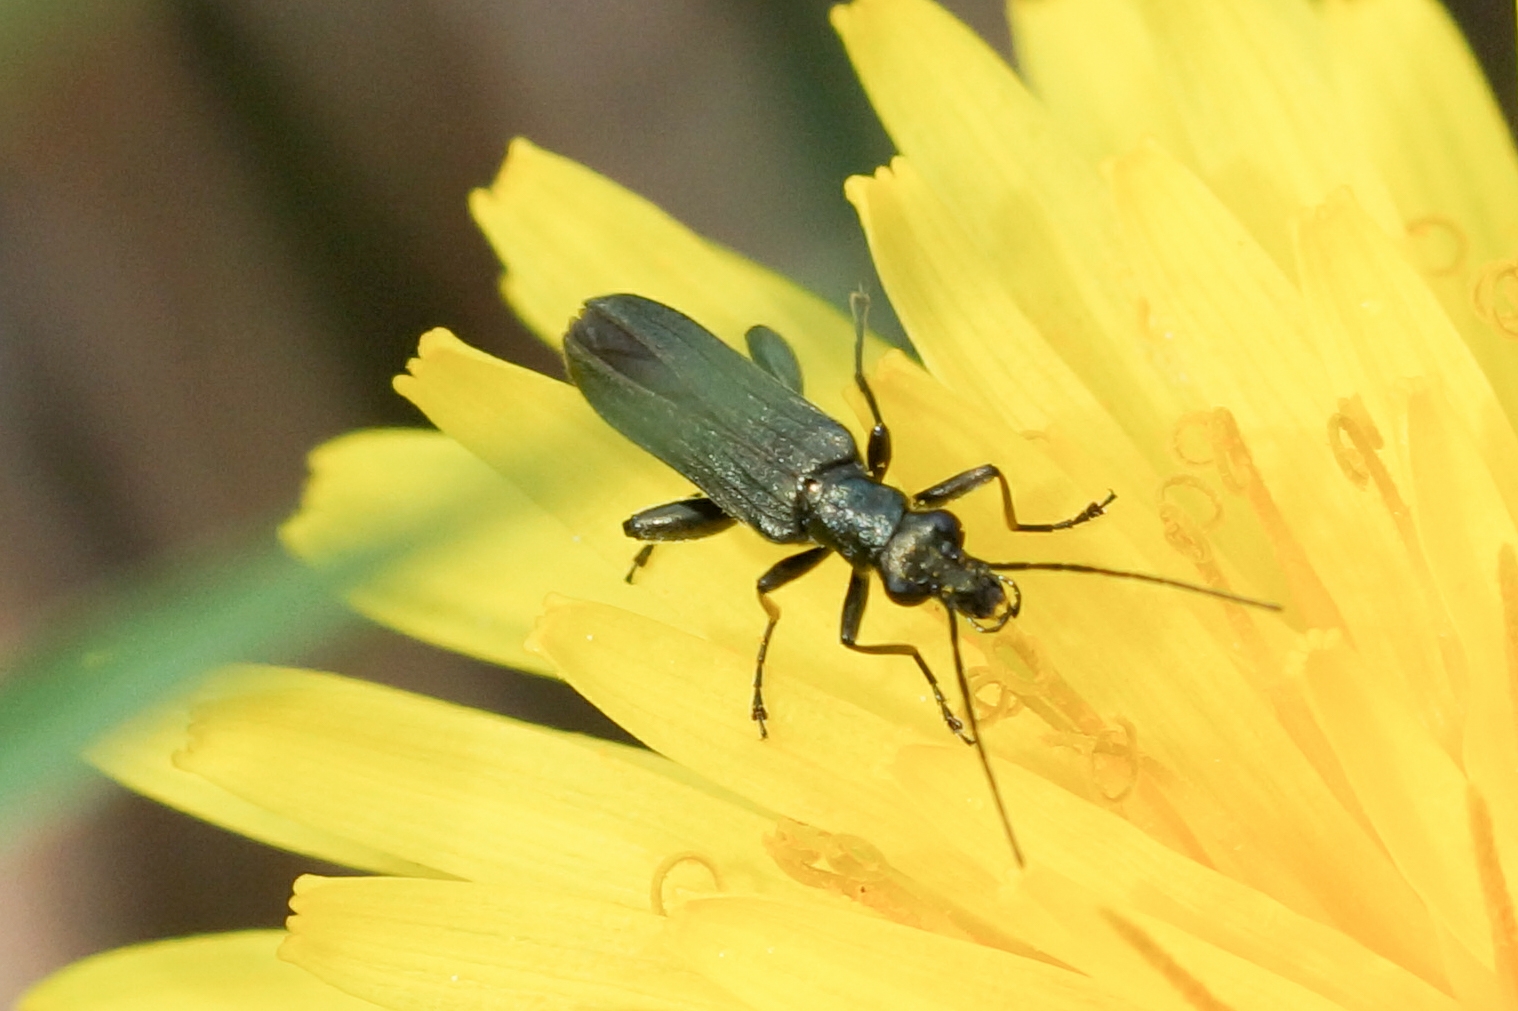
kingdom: Animalia
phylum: Arthropoda
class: Insecta
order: Coleoptera
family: Oedemeridae
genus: Oedemera
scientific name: Oedemera virescens
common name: Matgrøn solbille
